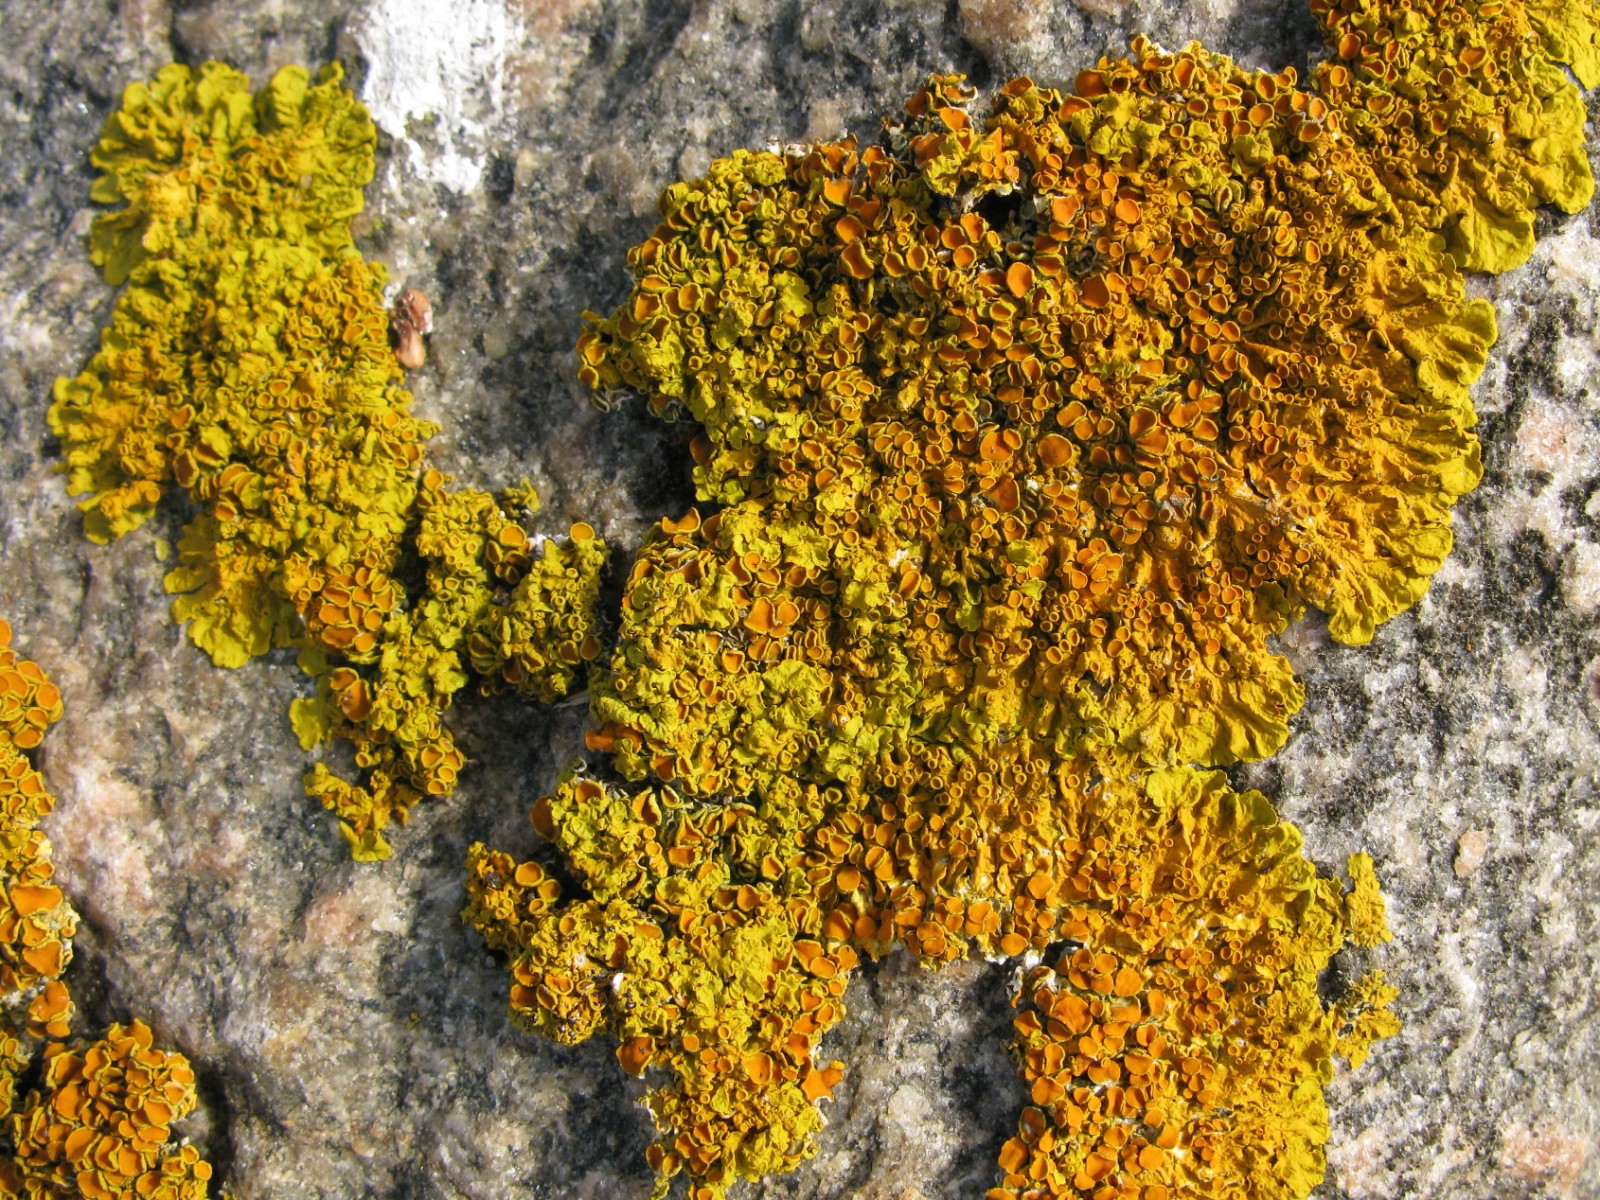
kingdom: Fungi
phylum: Ascomycota
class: Lecanoromycetes
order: Teloschistales
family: Teloschistaceae
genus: Xanthoria
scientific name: Xanthoria parietina
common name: almindelig væggelav
